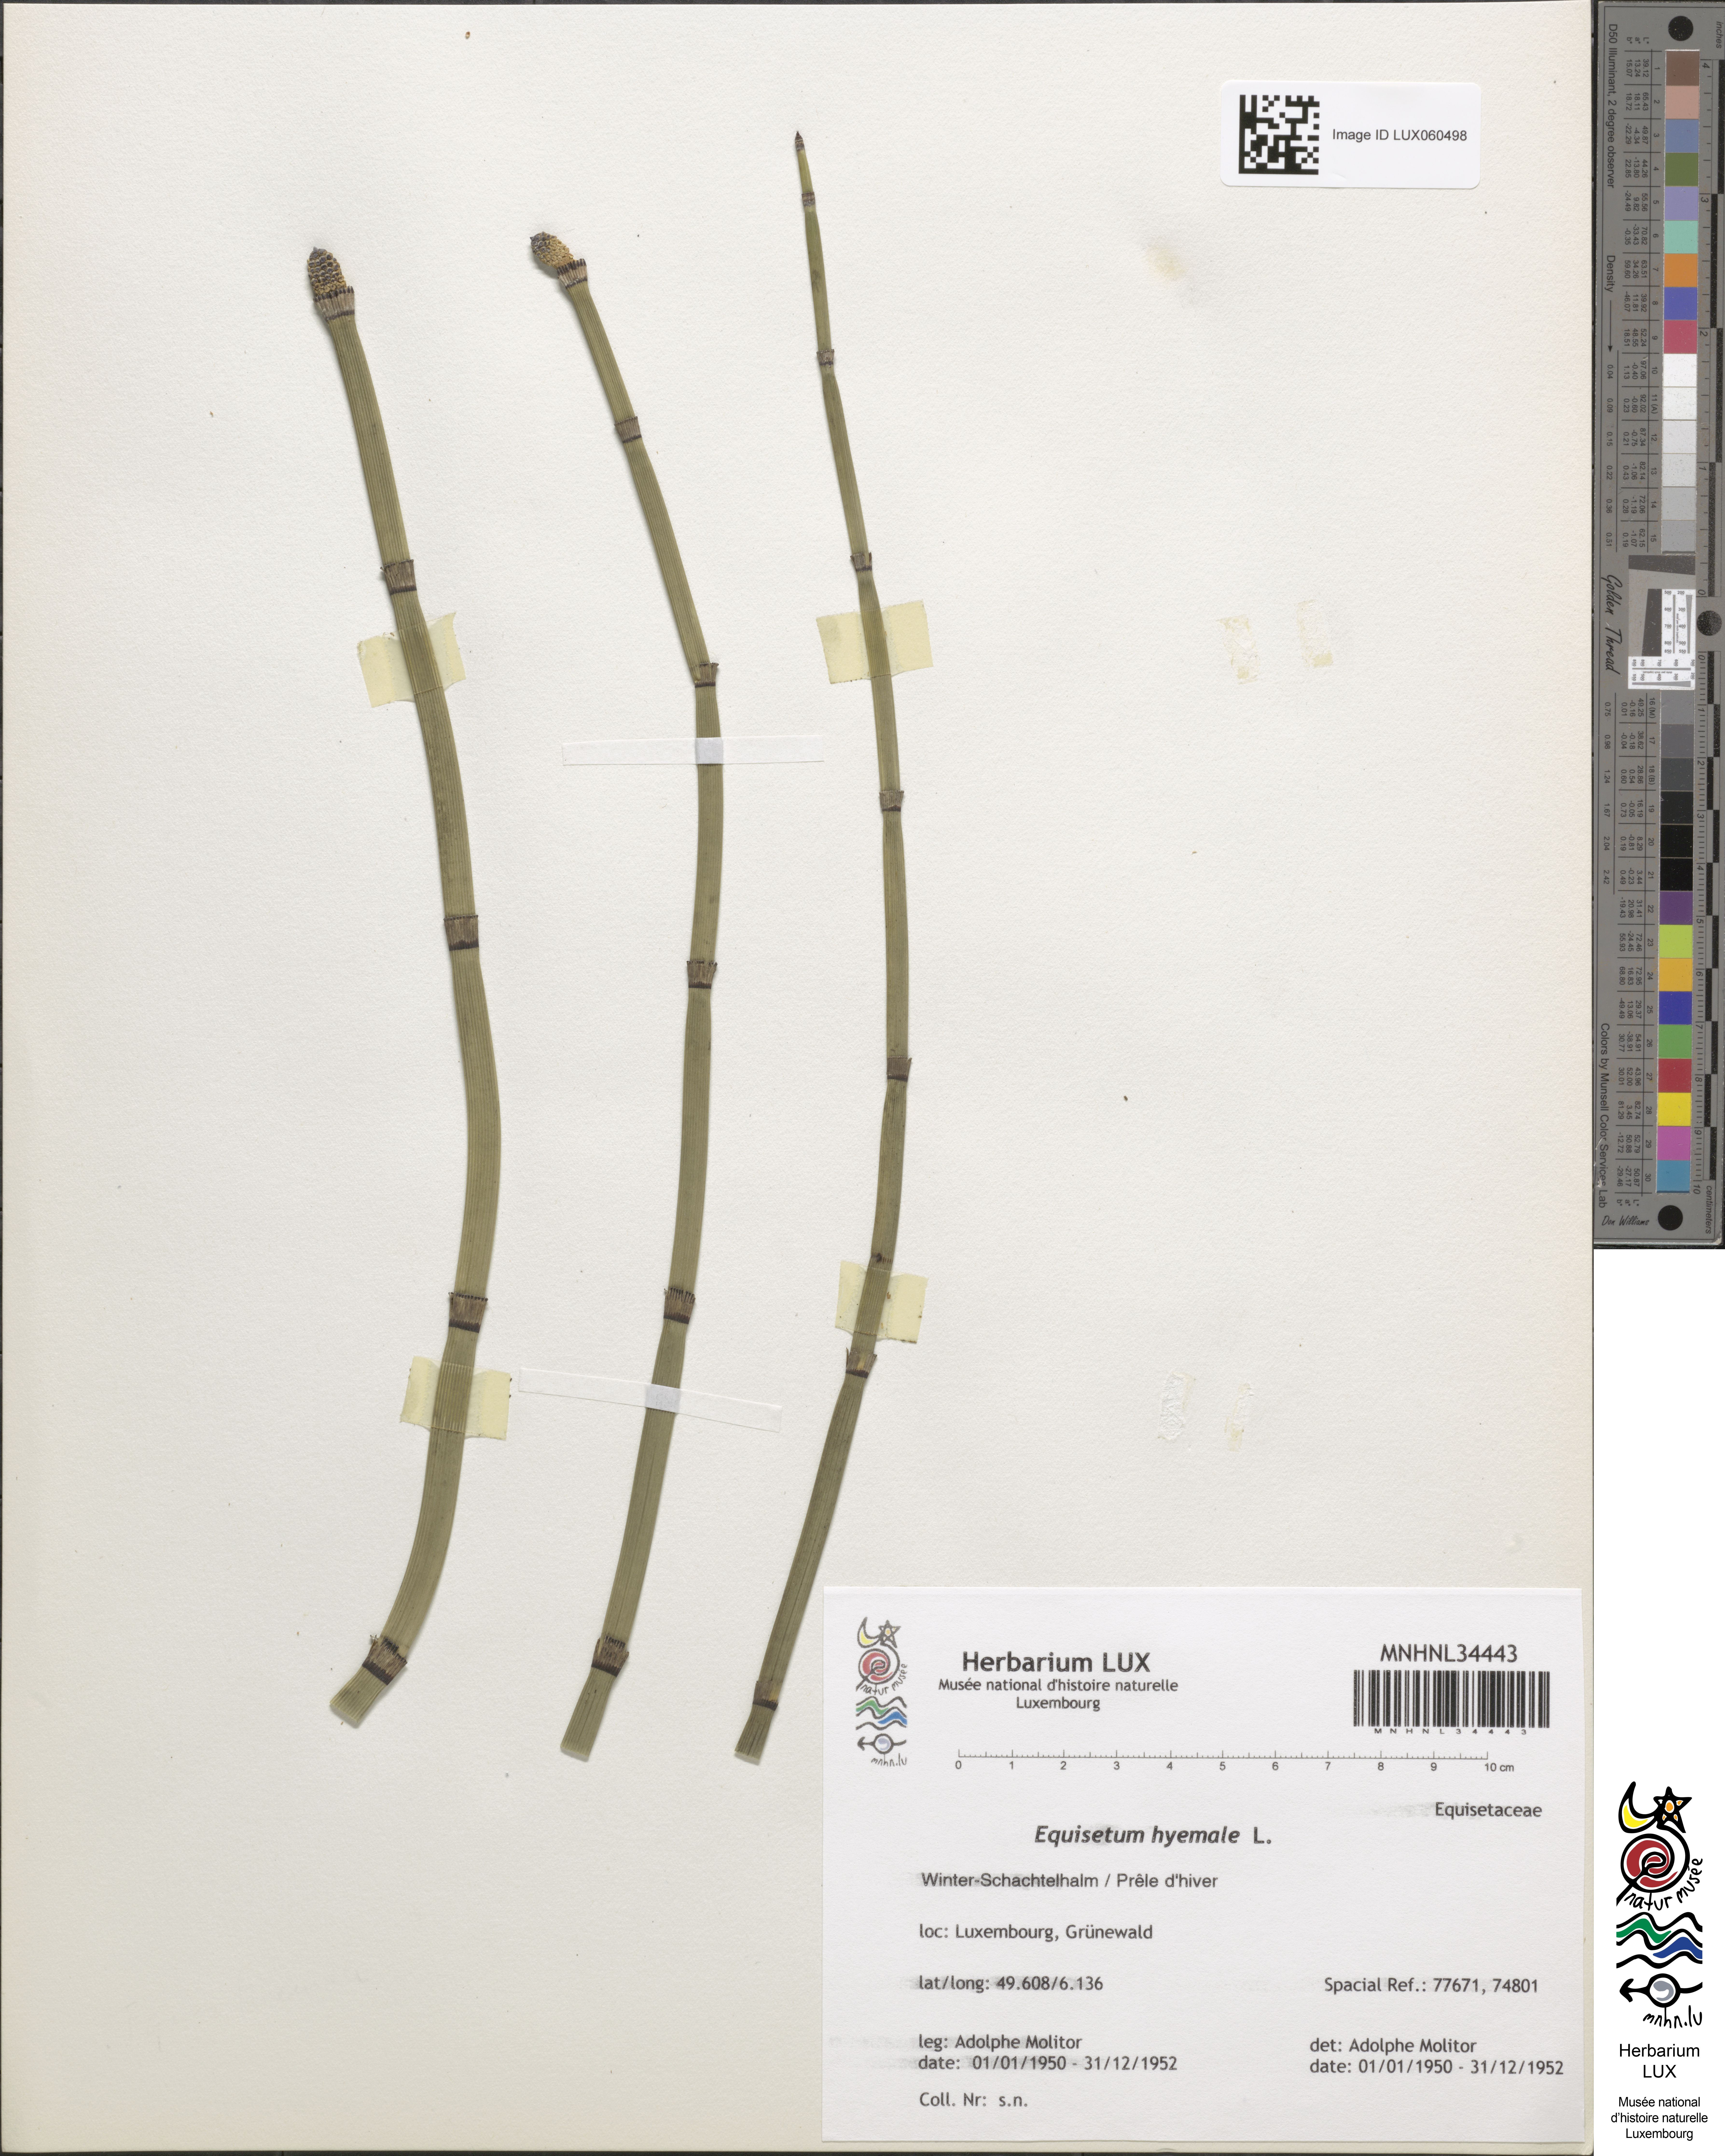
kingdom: Plantae
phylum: Tracheophyta
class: Polypodiopsida
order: Equisetales
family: Equisetaceae
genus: Equisetum
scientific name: Equisetum hyemale
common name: Rough horsetail
